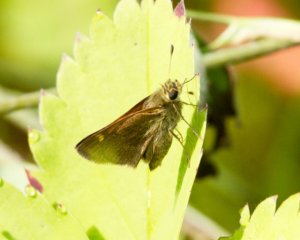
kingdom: Animalia
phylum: Arthropoda
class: Insecta
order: Lepidoptera
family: Hesperiidae
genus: Euphyes
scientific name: Euphyes vestris
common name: Dun Skipper
